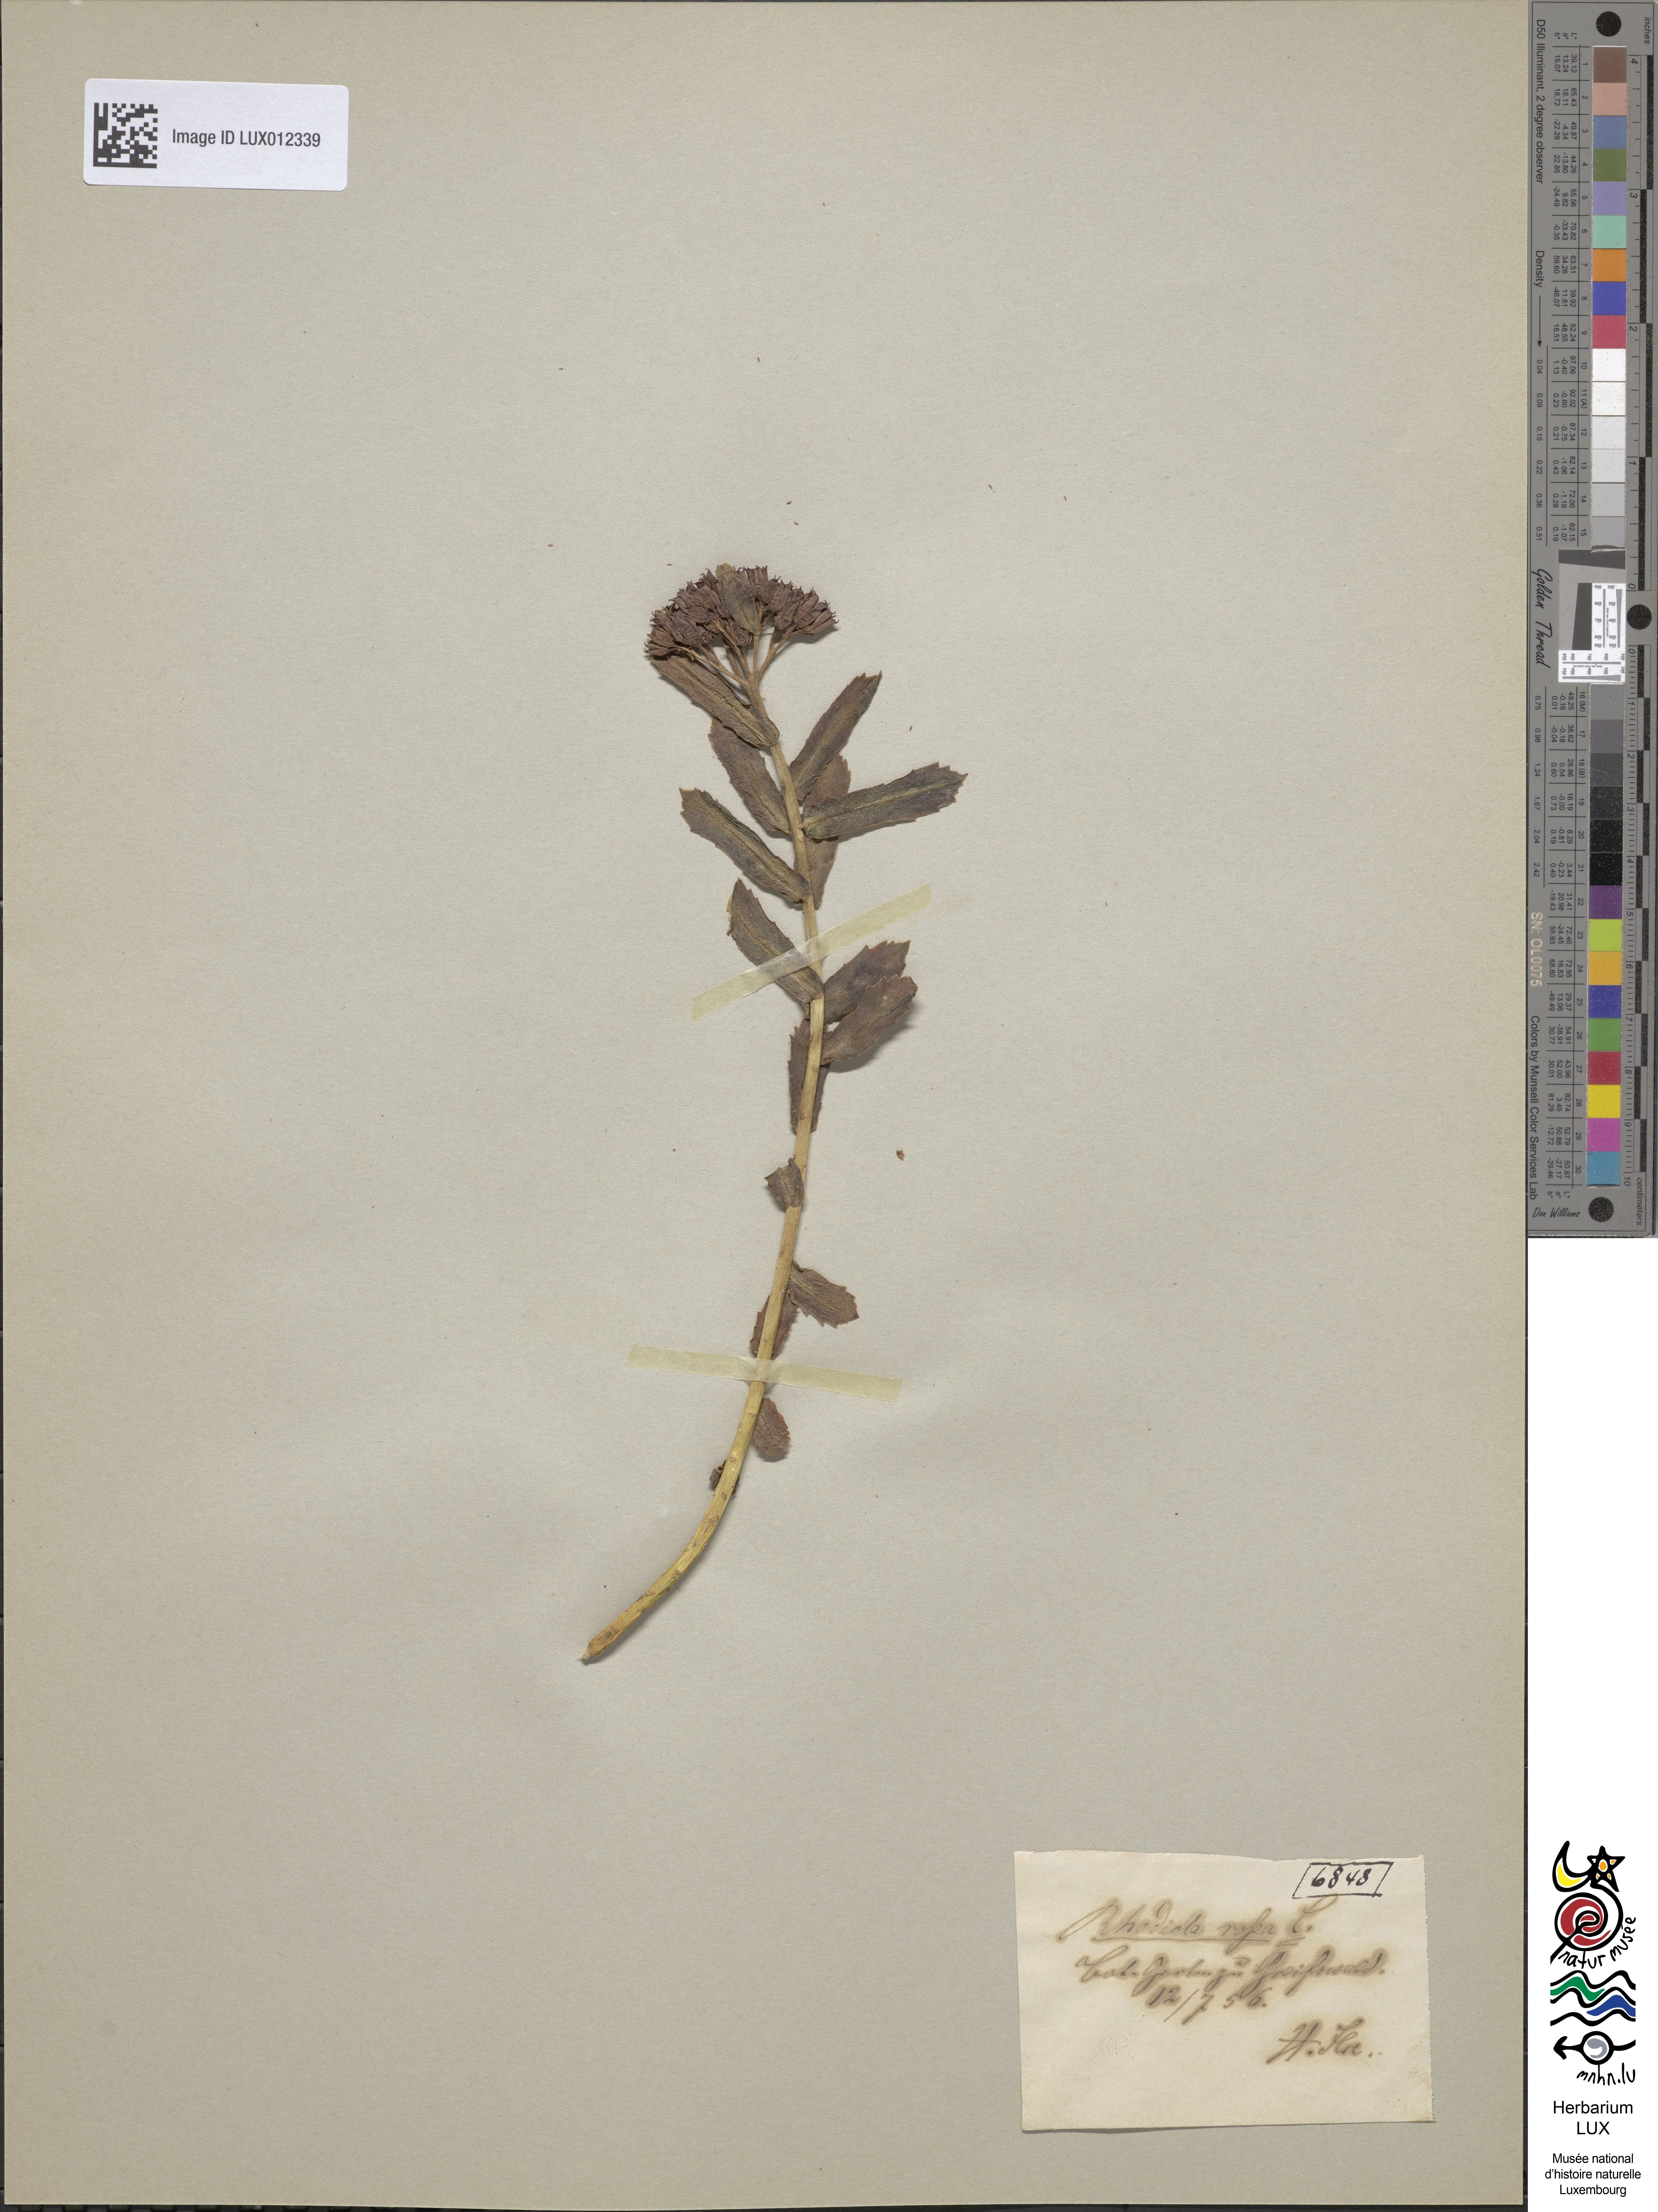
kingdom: Plantae
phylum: Tracheophyta
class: Magnoliopsida
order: Saxifragales
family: Crassulaceae
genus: Rhodiola
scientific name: Rhodiola rosea
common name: Roseroot
